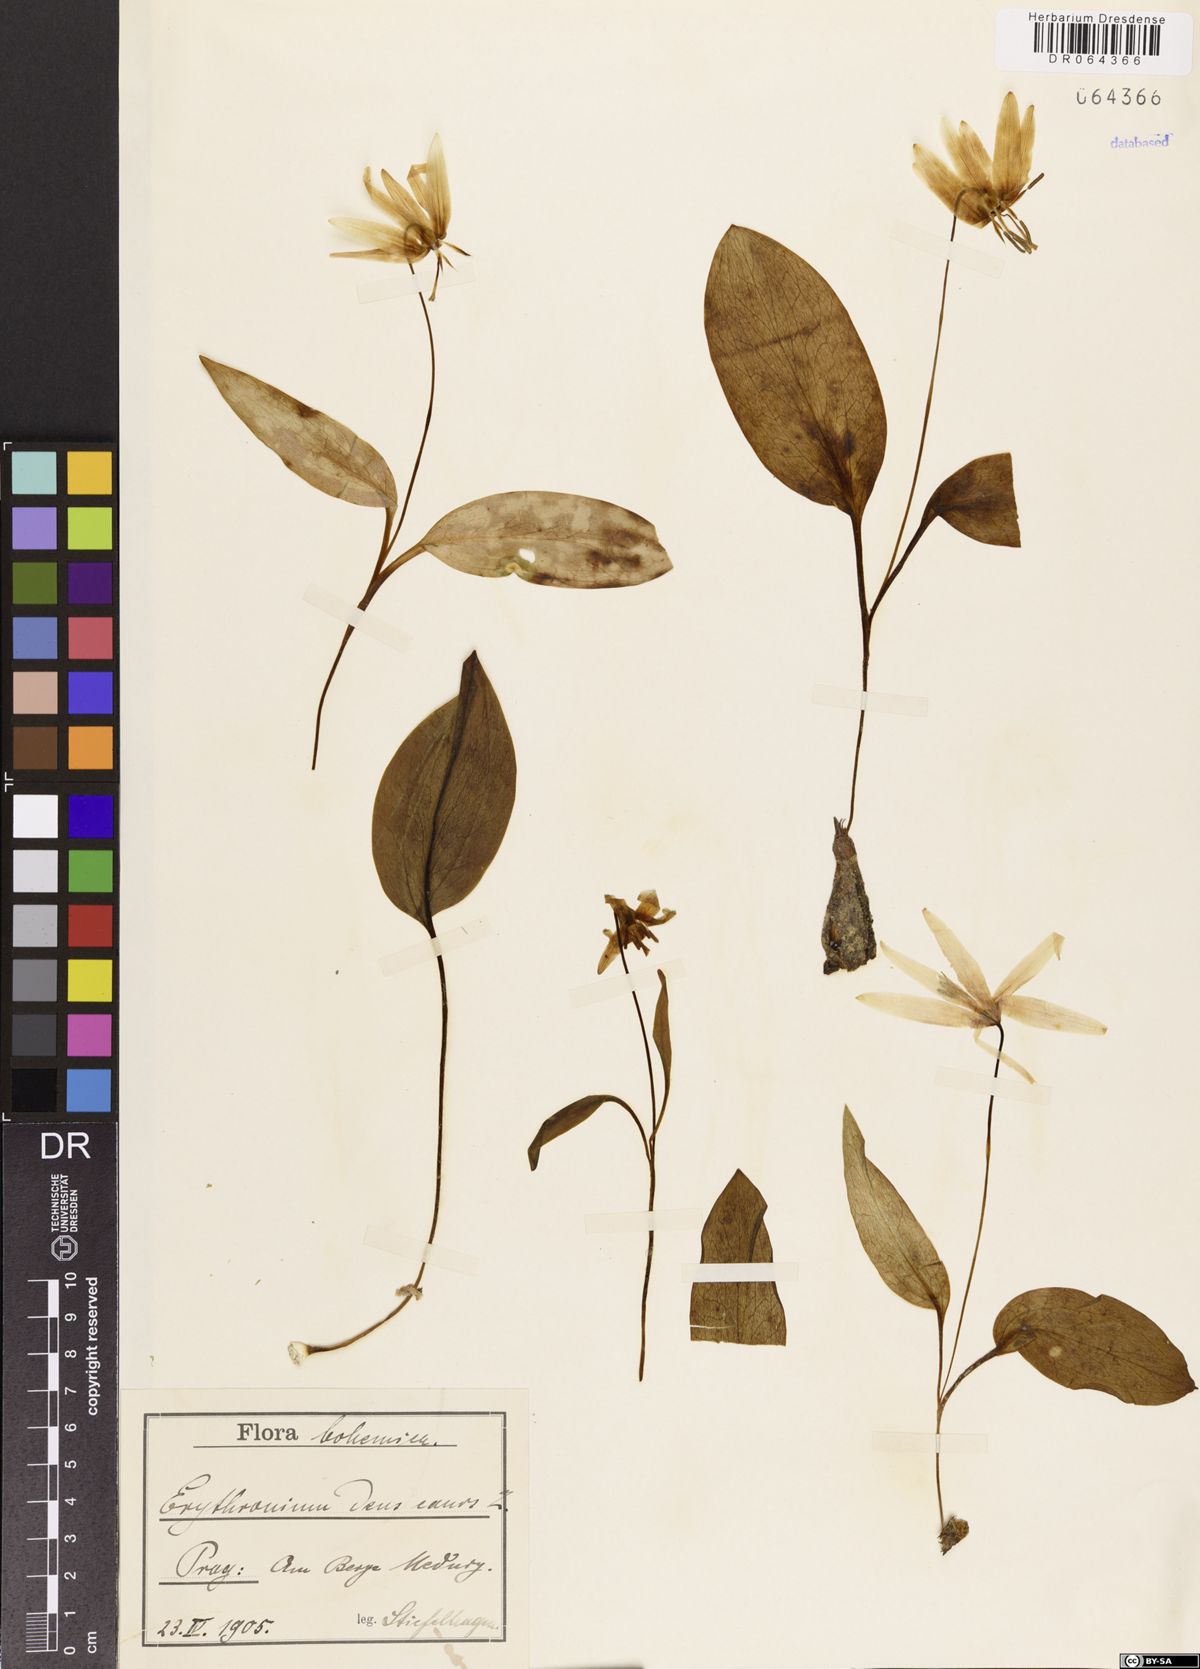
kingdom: Plantae
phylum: Tracheophyta
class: Liliopsida
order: Liliales
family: Liliaceae
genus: Erythronium
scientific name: Erythronium dens-canis
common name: Dog's-tooth-violet
